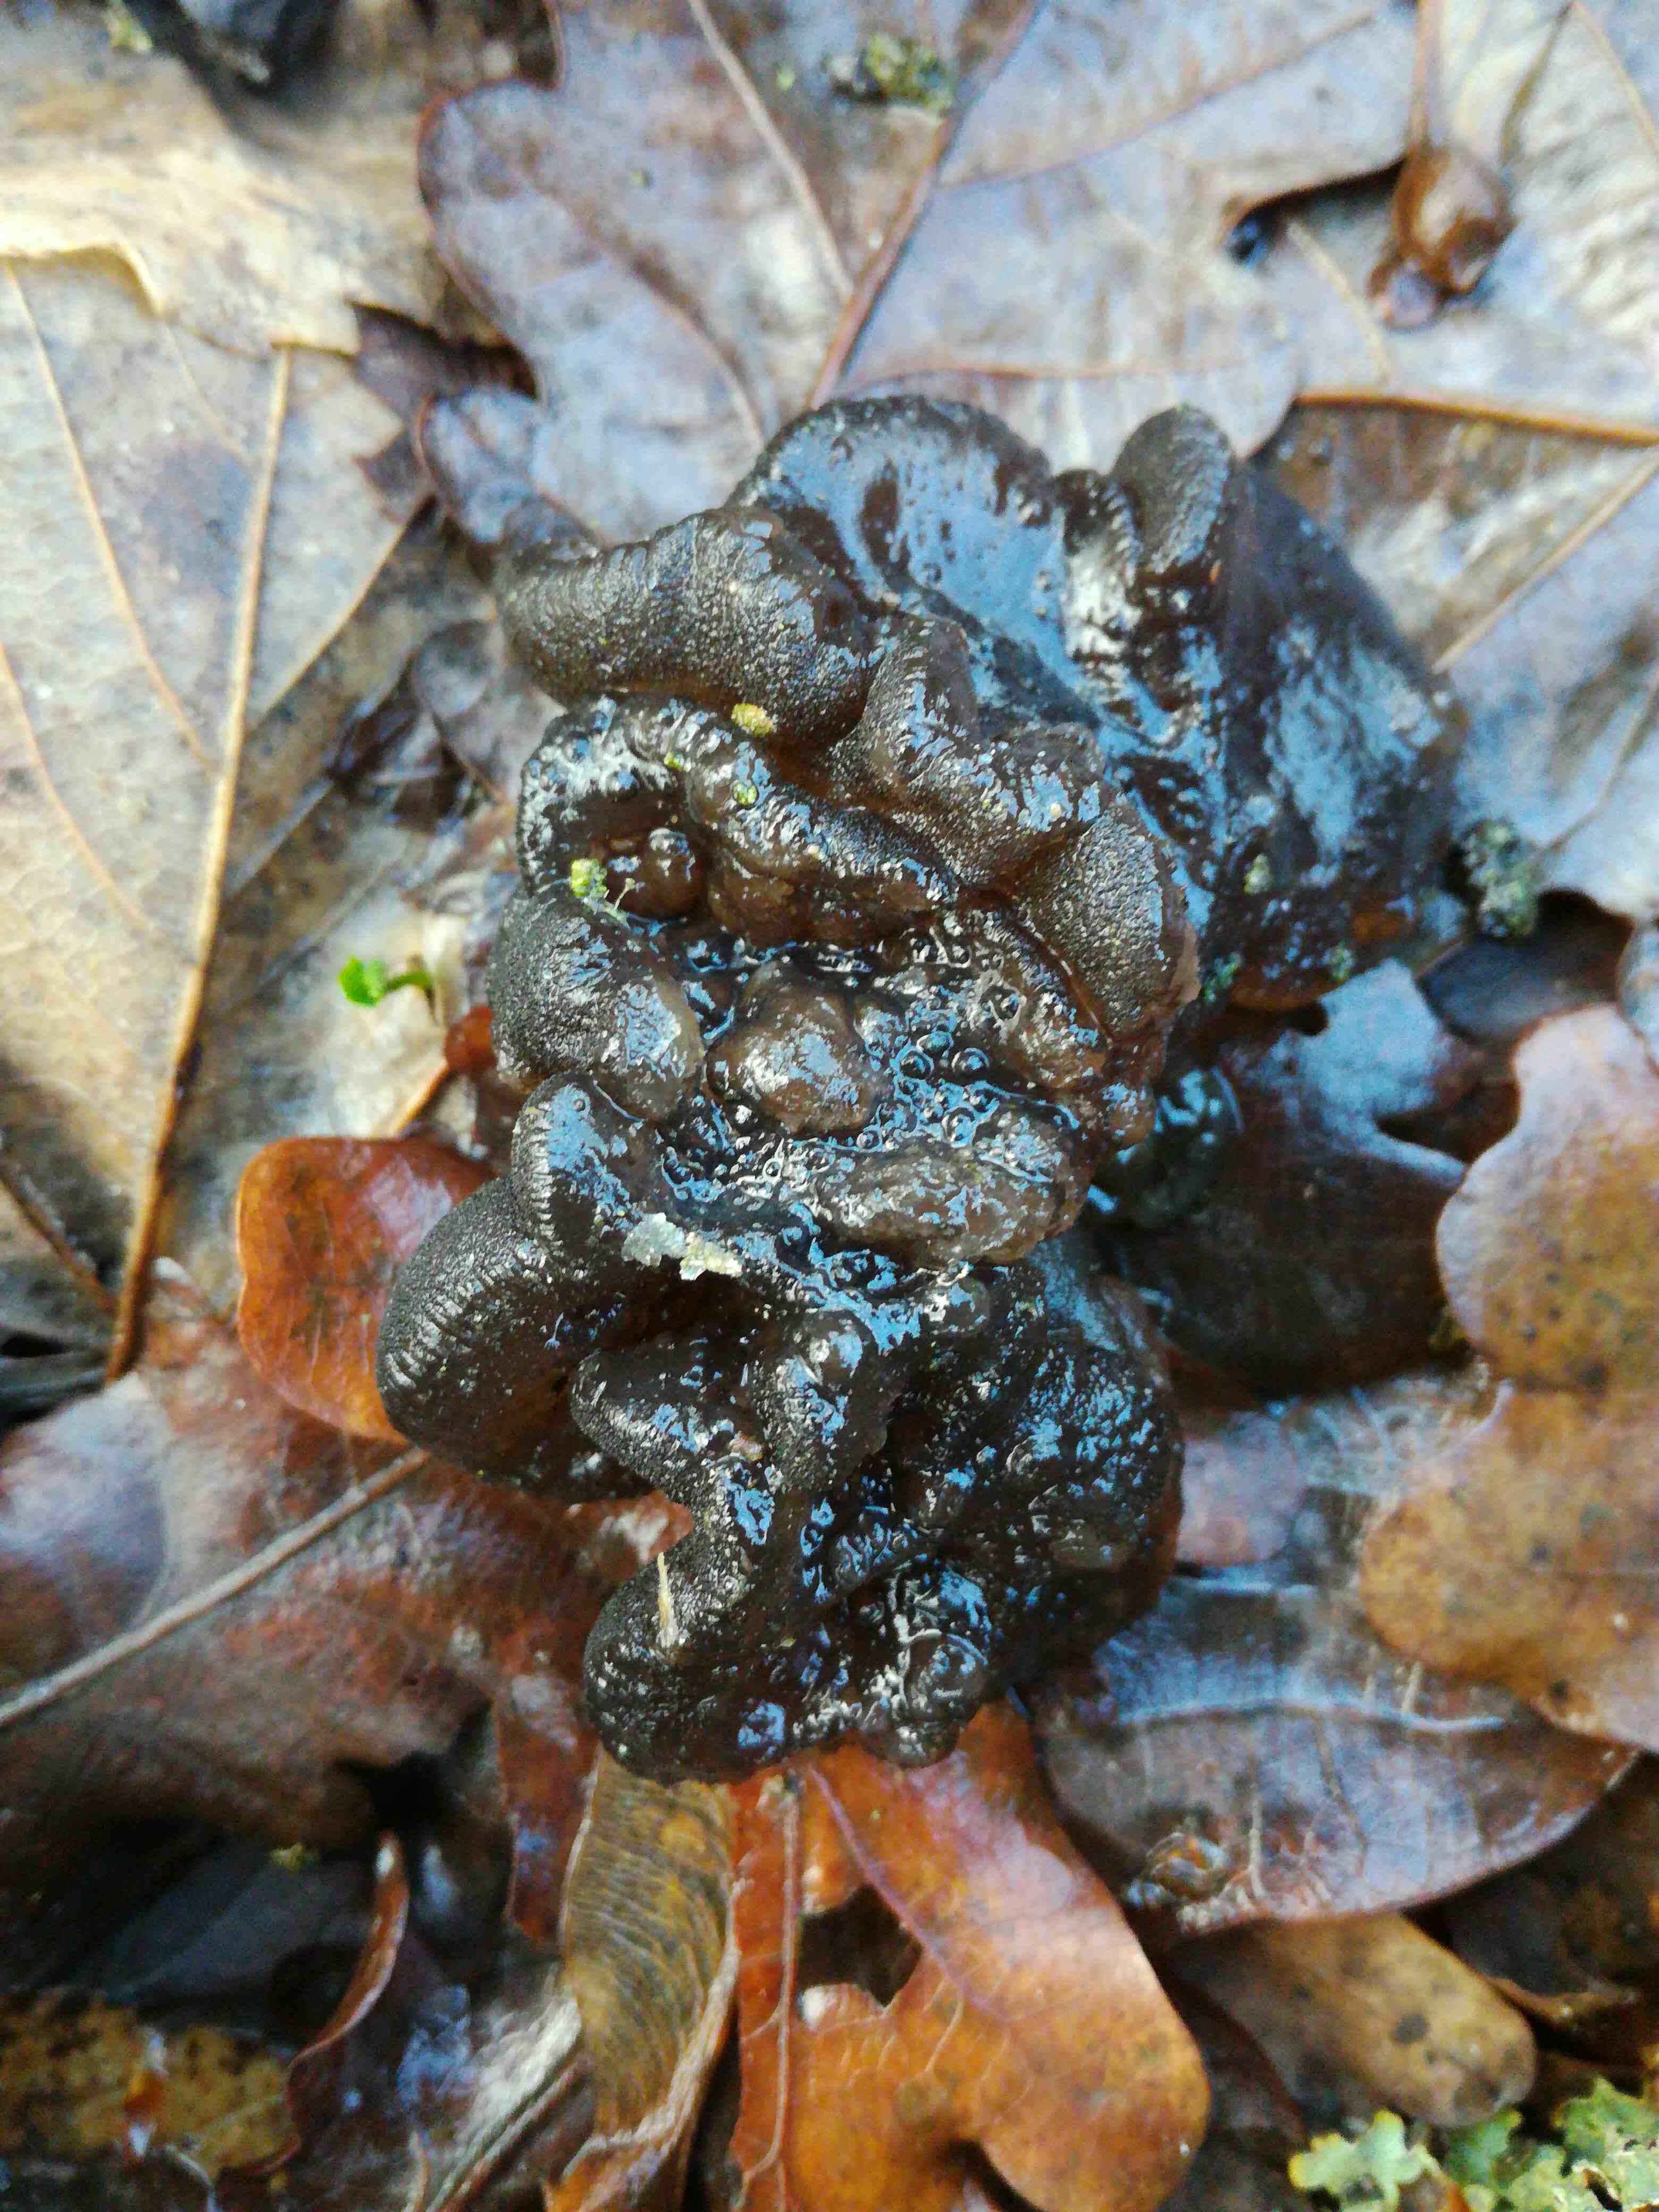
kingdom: Fungi
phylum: Basidiomycota
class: Agaricomycetes
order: Auriculariales
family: Auriculariaceae
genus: Exidia
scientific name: Exidia glandulosa
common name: ege-bævretop
